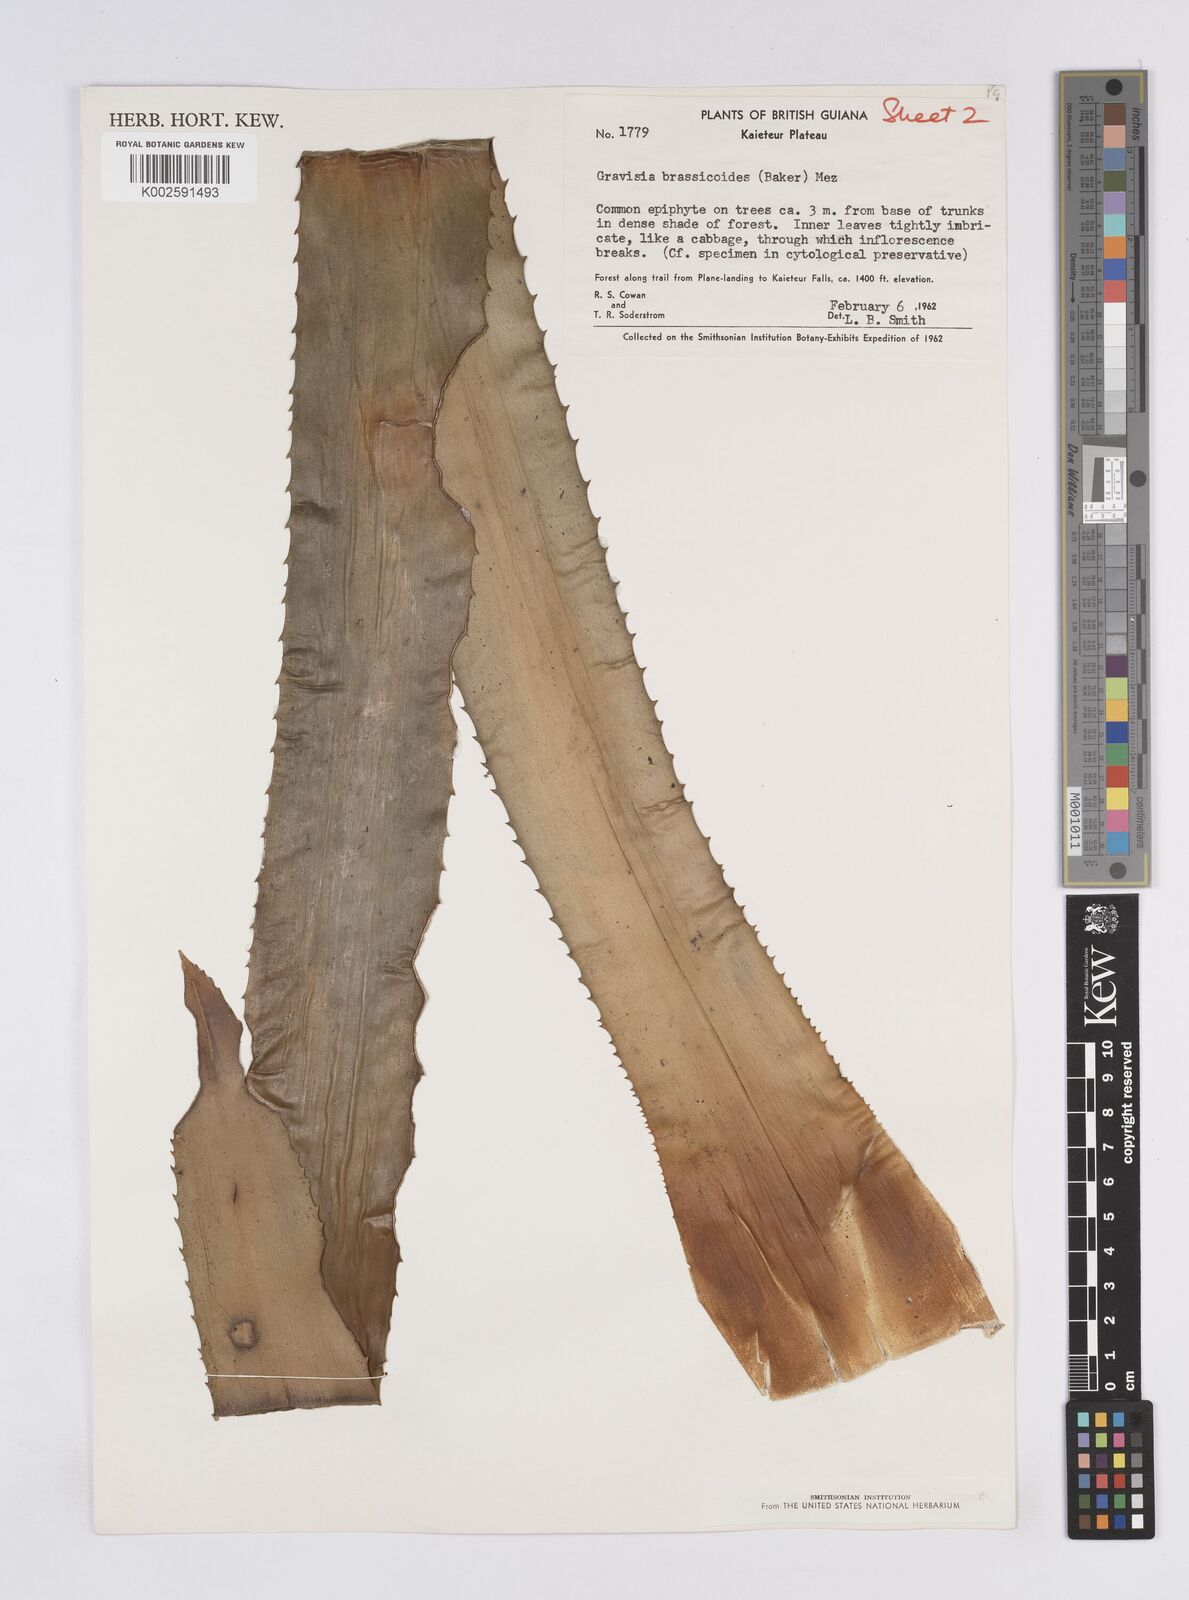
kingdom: Plantae
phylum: Tracheophyta
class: Liliopsida
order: Poales
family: Bromeliaceae
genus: Aechmea
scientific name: Aechmea brassicoides
